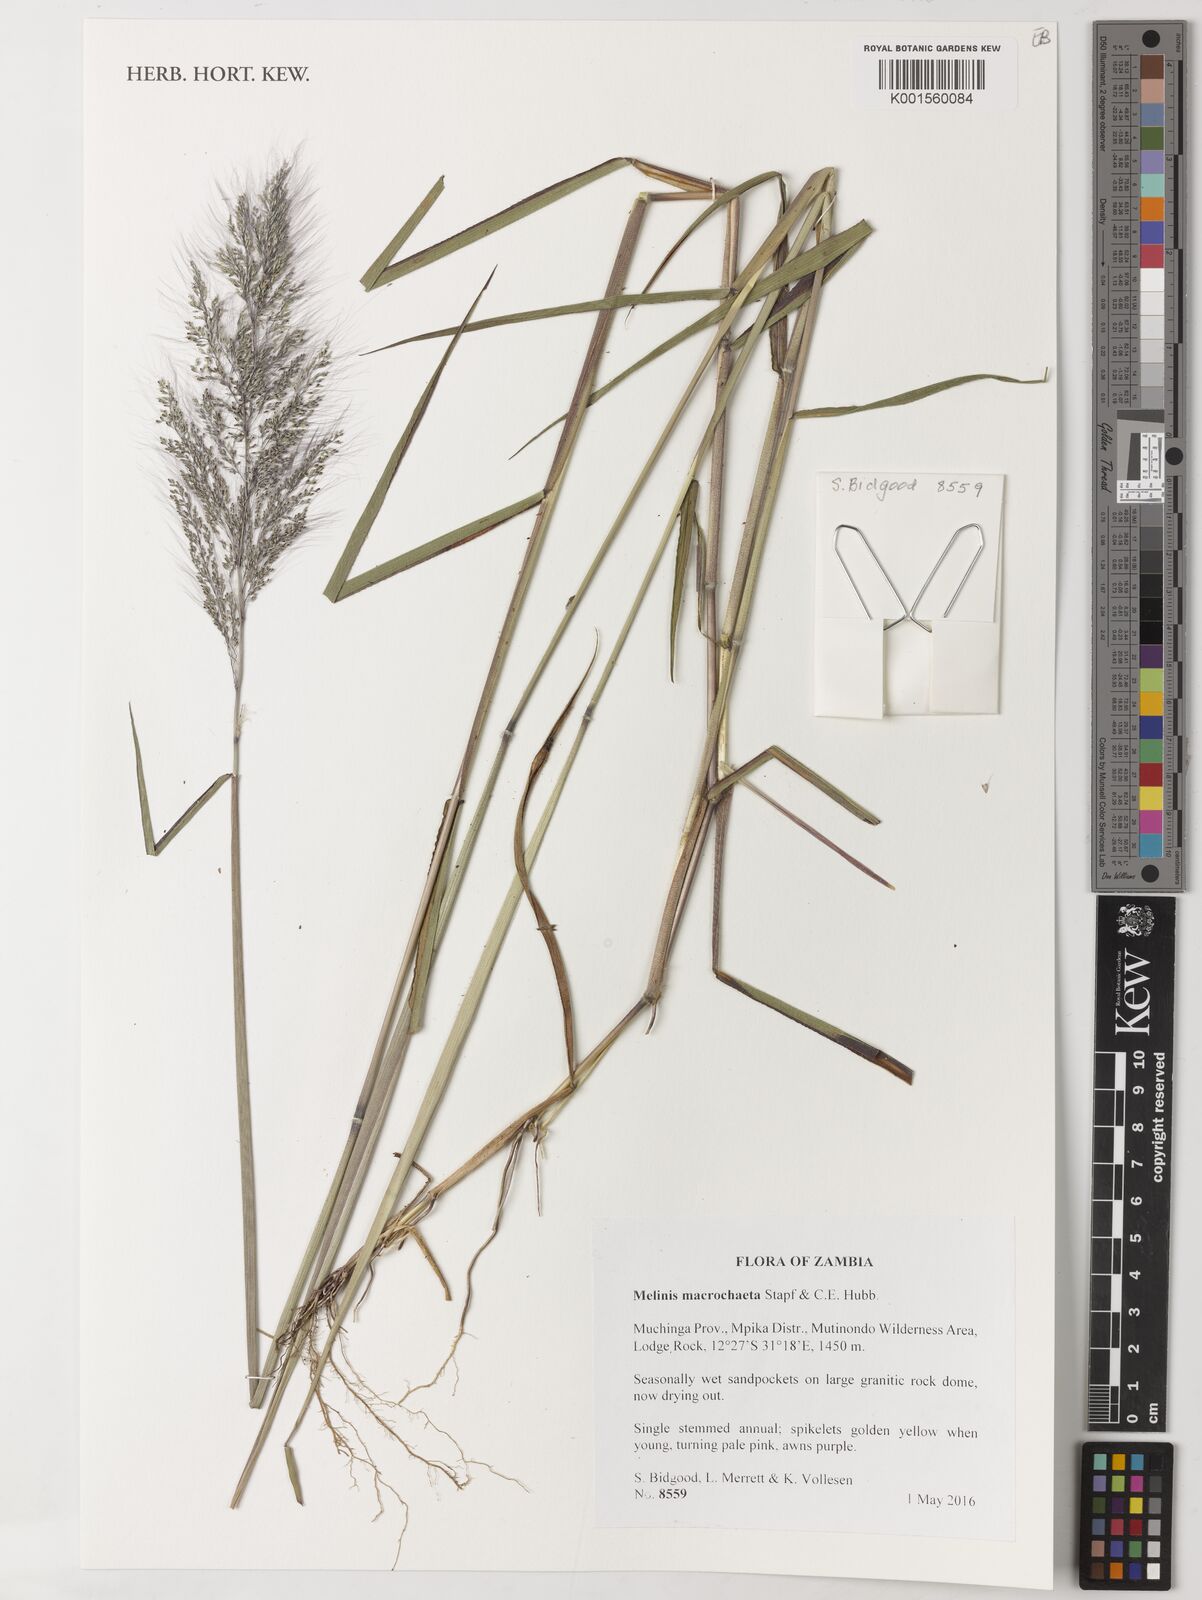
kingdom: Plantae
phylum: Tracheophyta
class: Liliopsida
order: Poales
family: Poaceae
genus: Melinis
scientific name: Melinis macrochaeta
